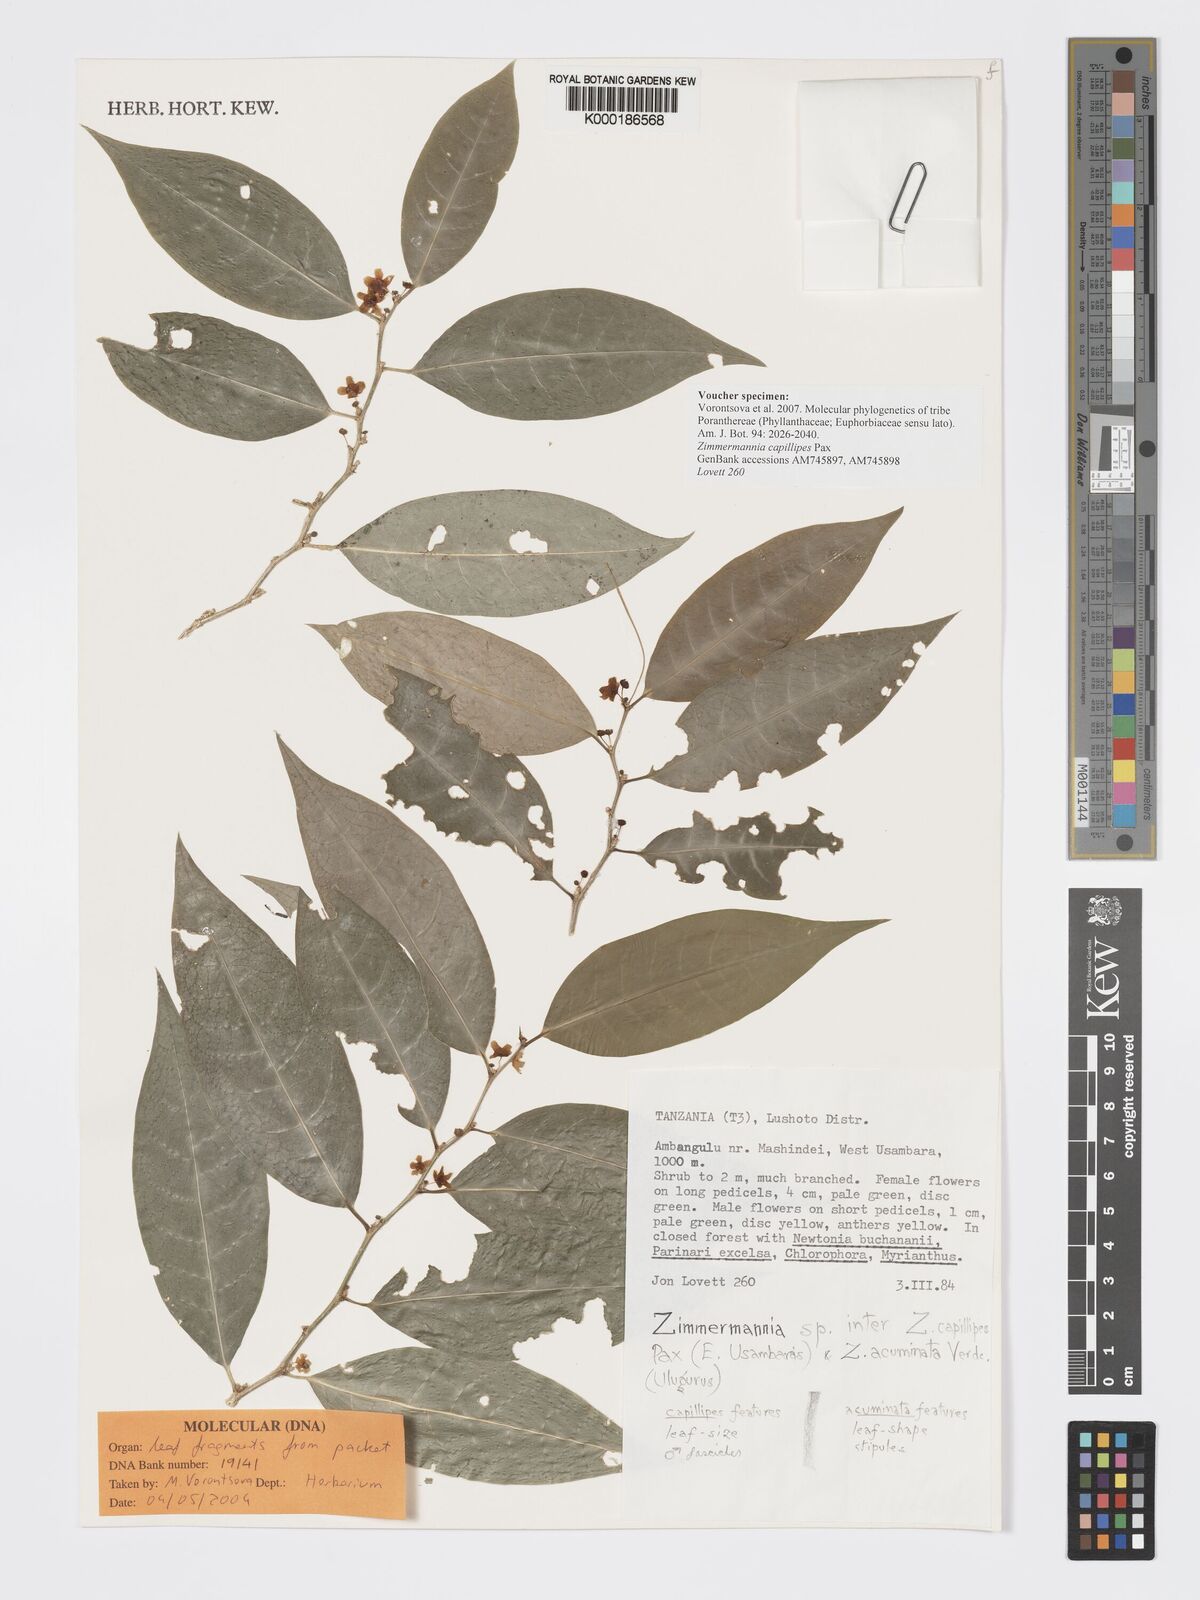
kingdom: Plantae
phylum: Tracheophyta
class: Lycopodiopsida
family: Eleutherophyllaceae
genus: Zimmermannia
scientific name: Zimmermannia
